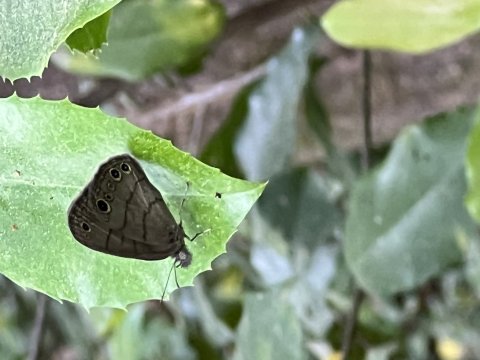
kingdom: Animalia
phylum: Arthropoda
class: Insecta
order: Lepidoptera
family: Nymphalidae
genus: Hermeuptychia
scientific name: Hermeuptychia hermes
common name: Carolina Satyr
